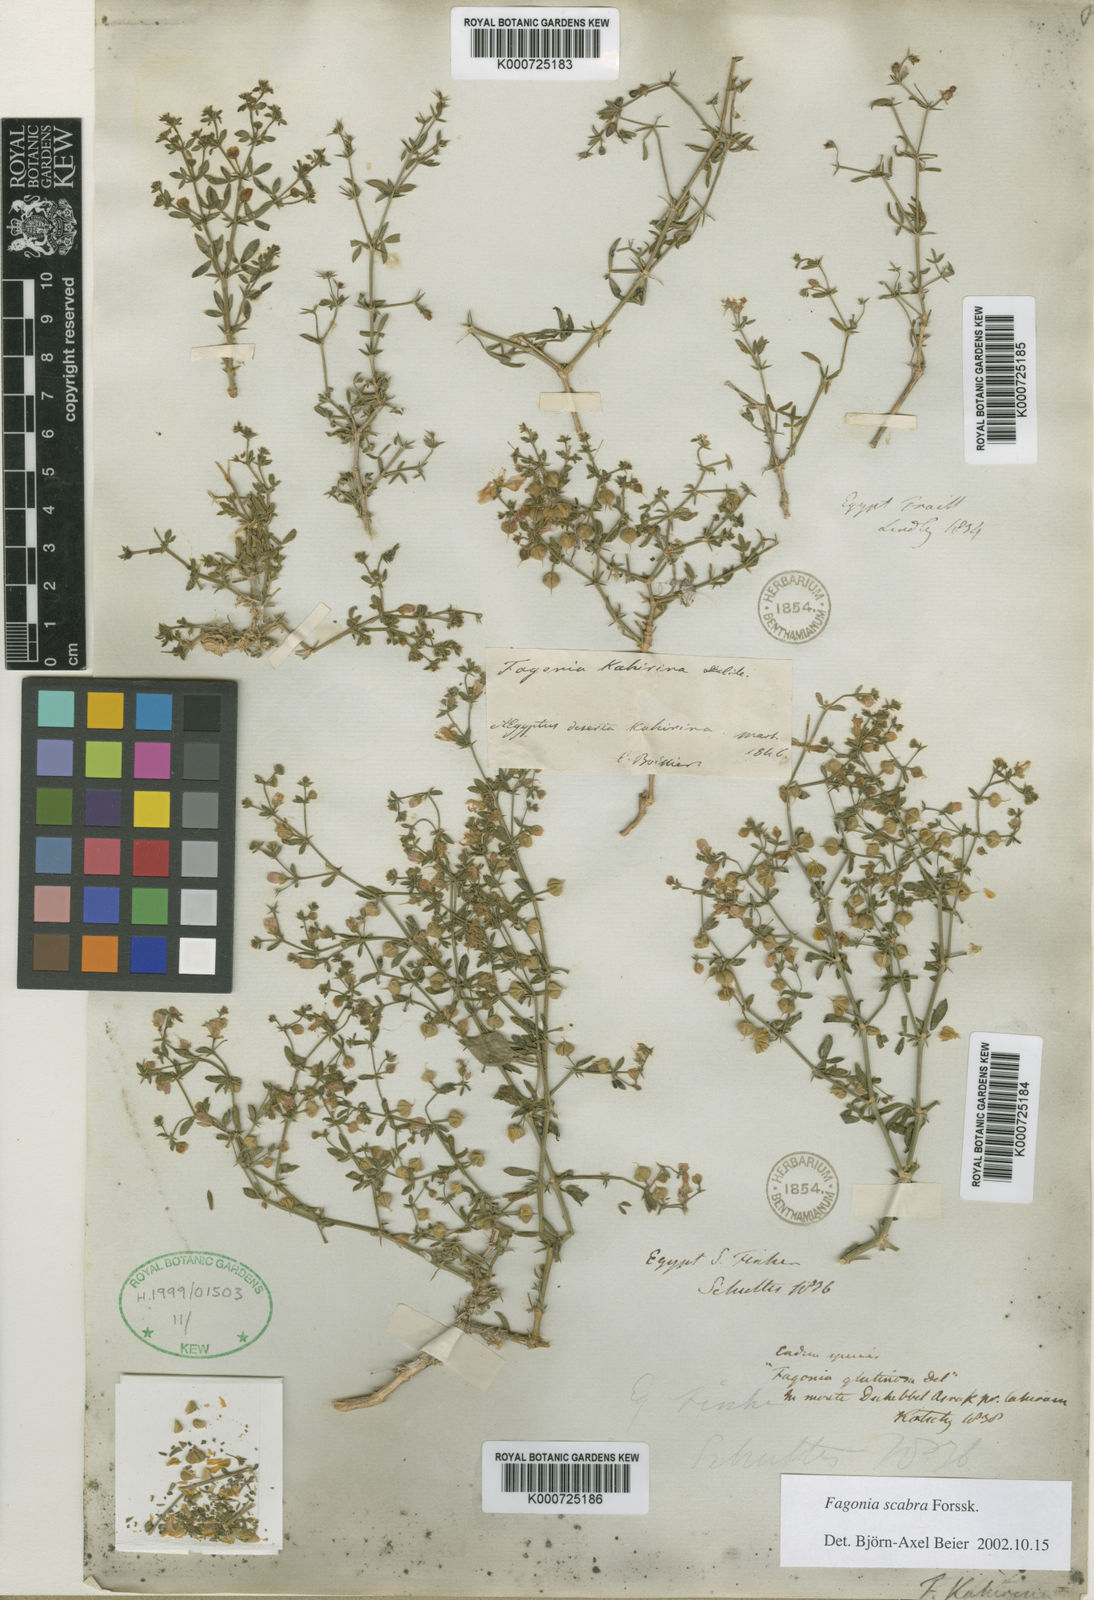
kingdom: Plantae
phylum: Tracheophyta
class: Magnoliopsida
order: Zygophyllales
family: Zygophyllaceae
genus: Fagonia
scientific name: Fagonia scabra
